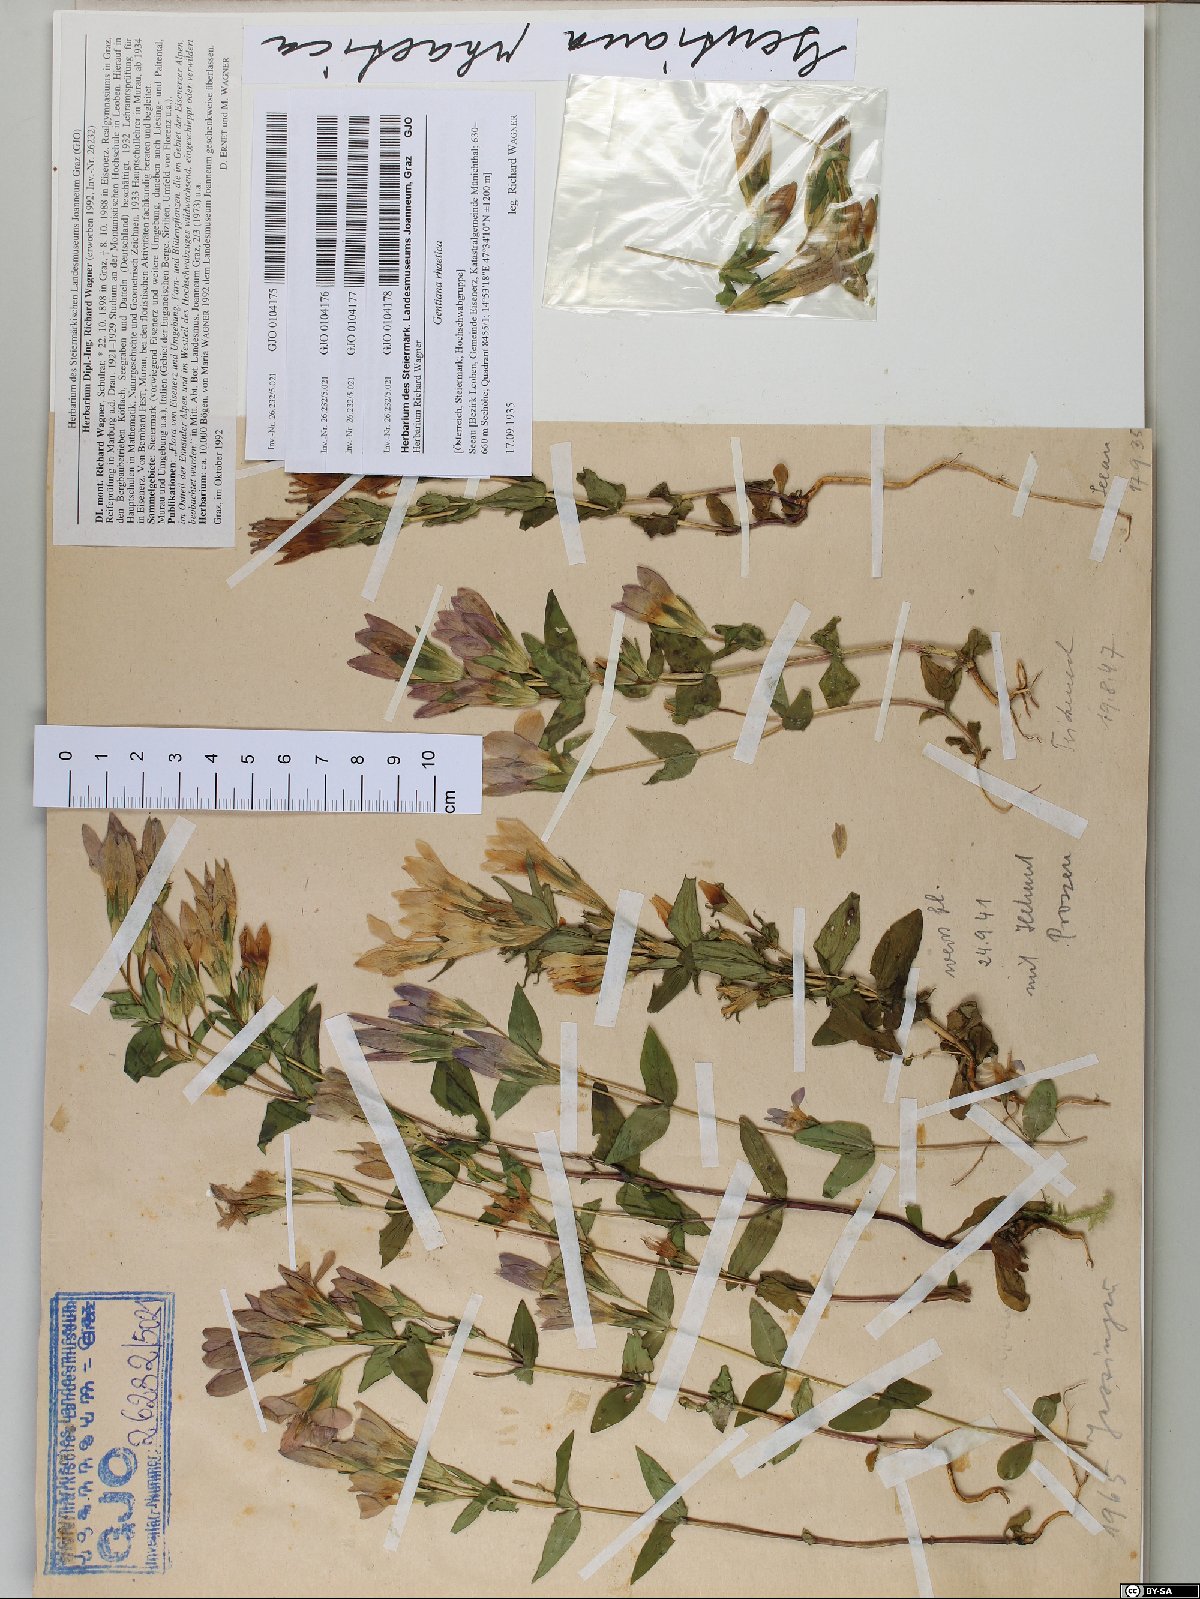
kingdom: Plantae
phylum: Tracheophyta
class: Magnoliopsida
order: Gentianales
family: Gentianaceae
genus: Gentianella
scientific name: Gentianella rhaetica
